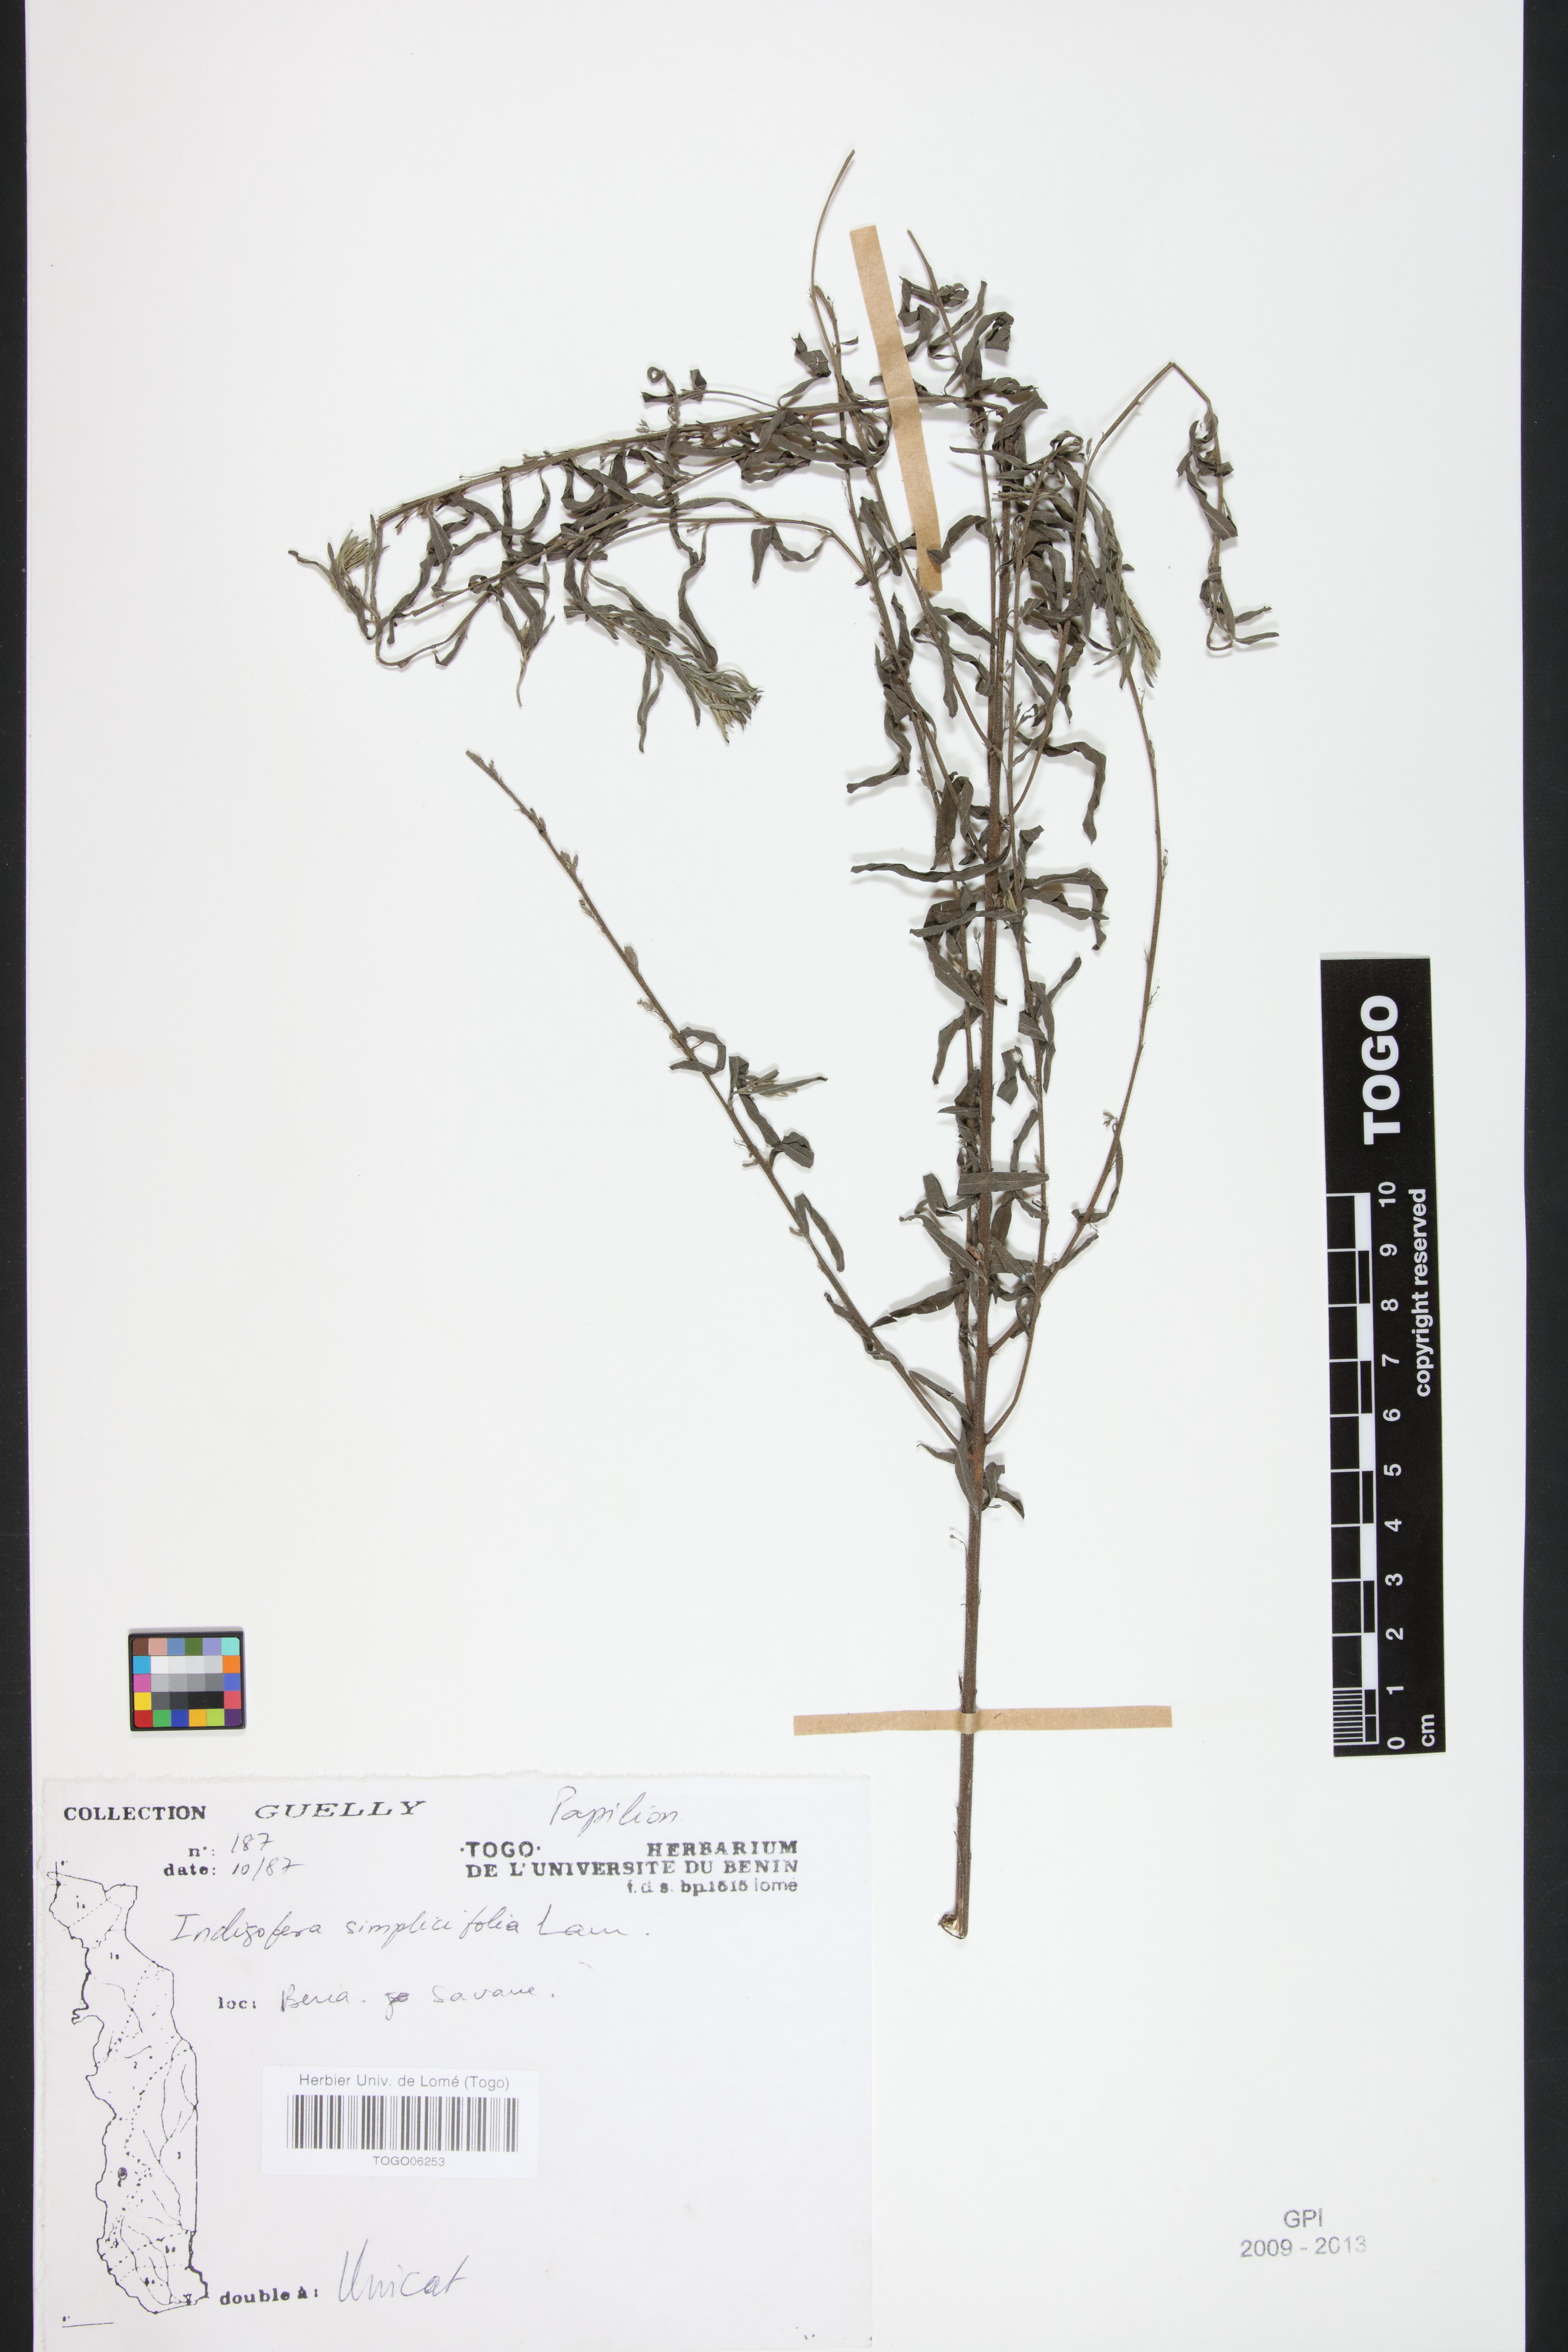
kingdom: Plantae
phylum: Tracheophyta
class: Magnoliopsida
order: Fabales
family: Fabaceae
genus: Indigofera
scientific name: Indigofera leprieurii
